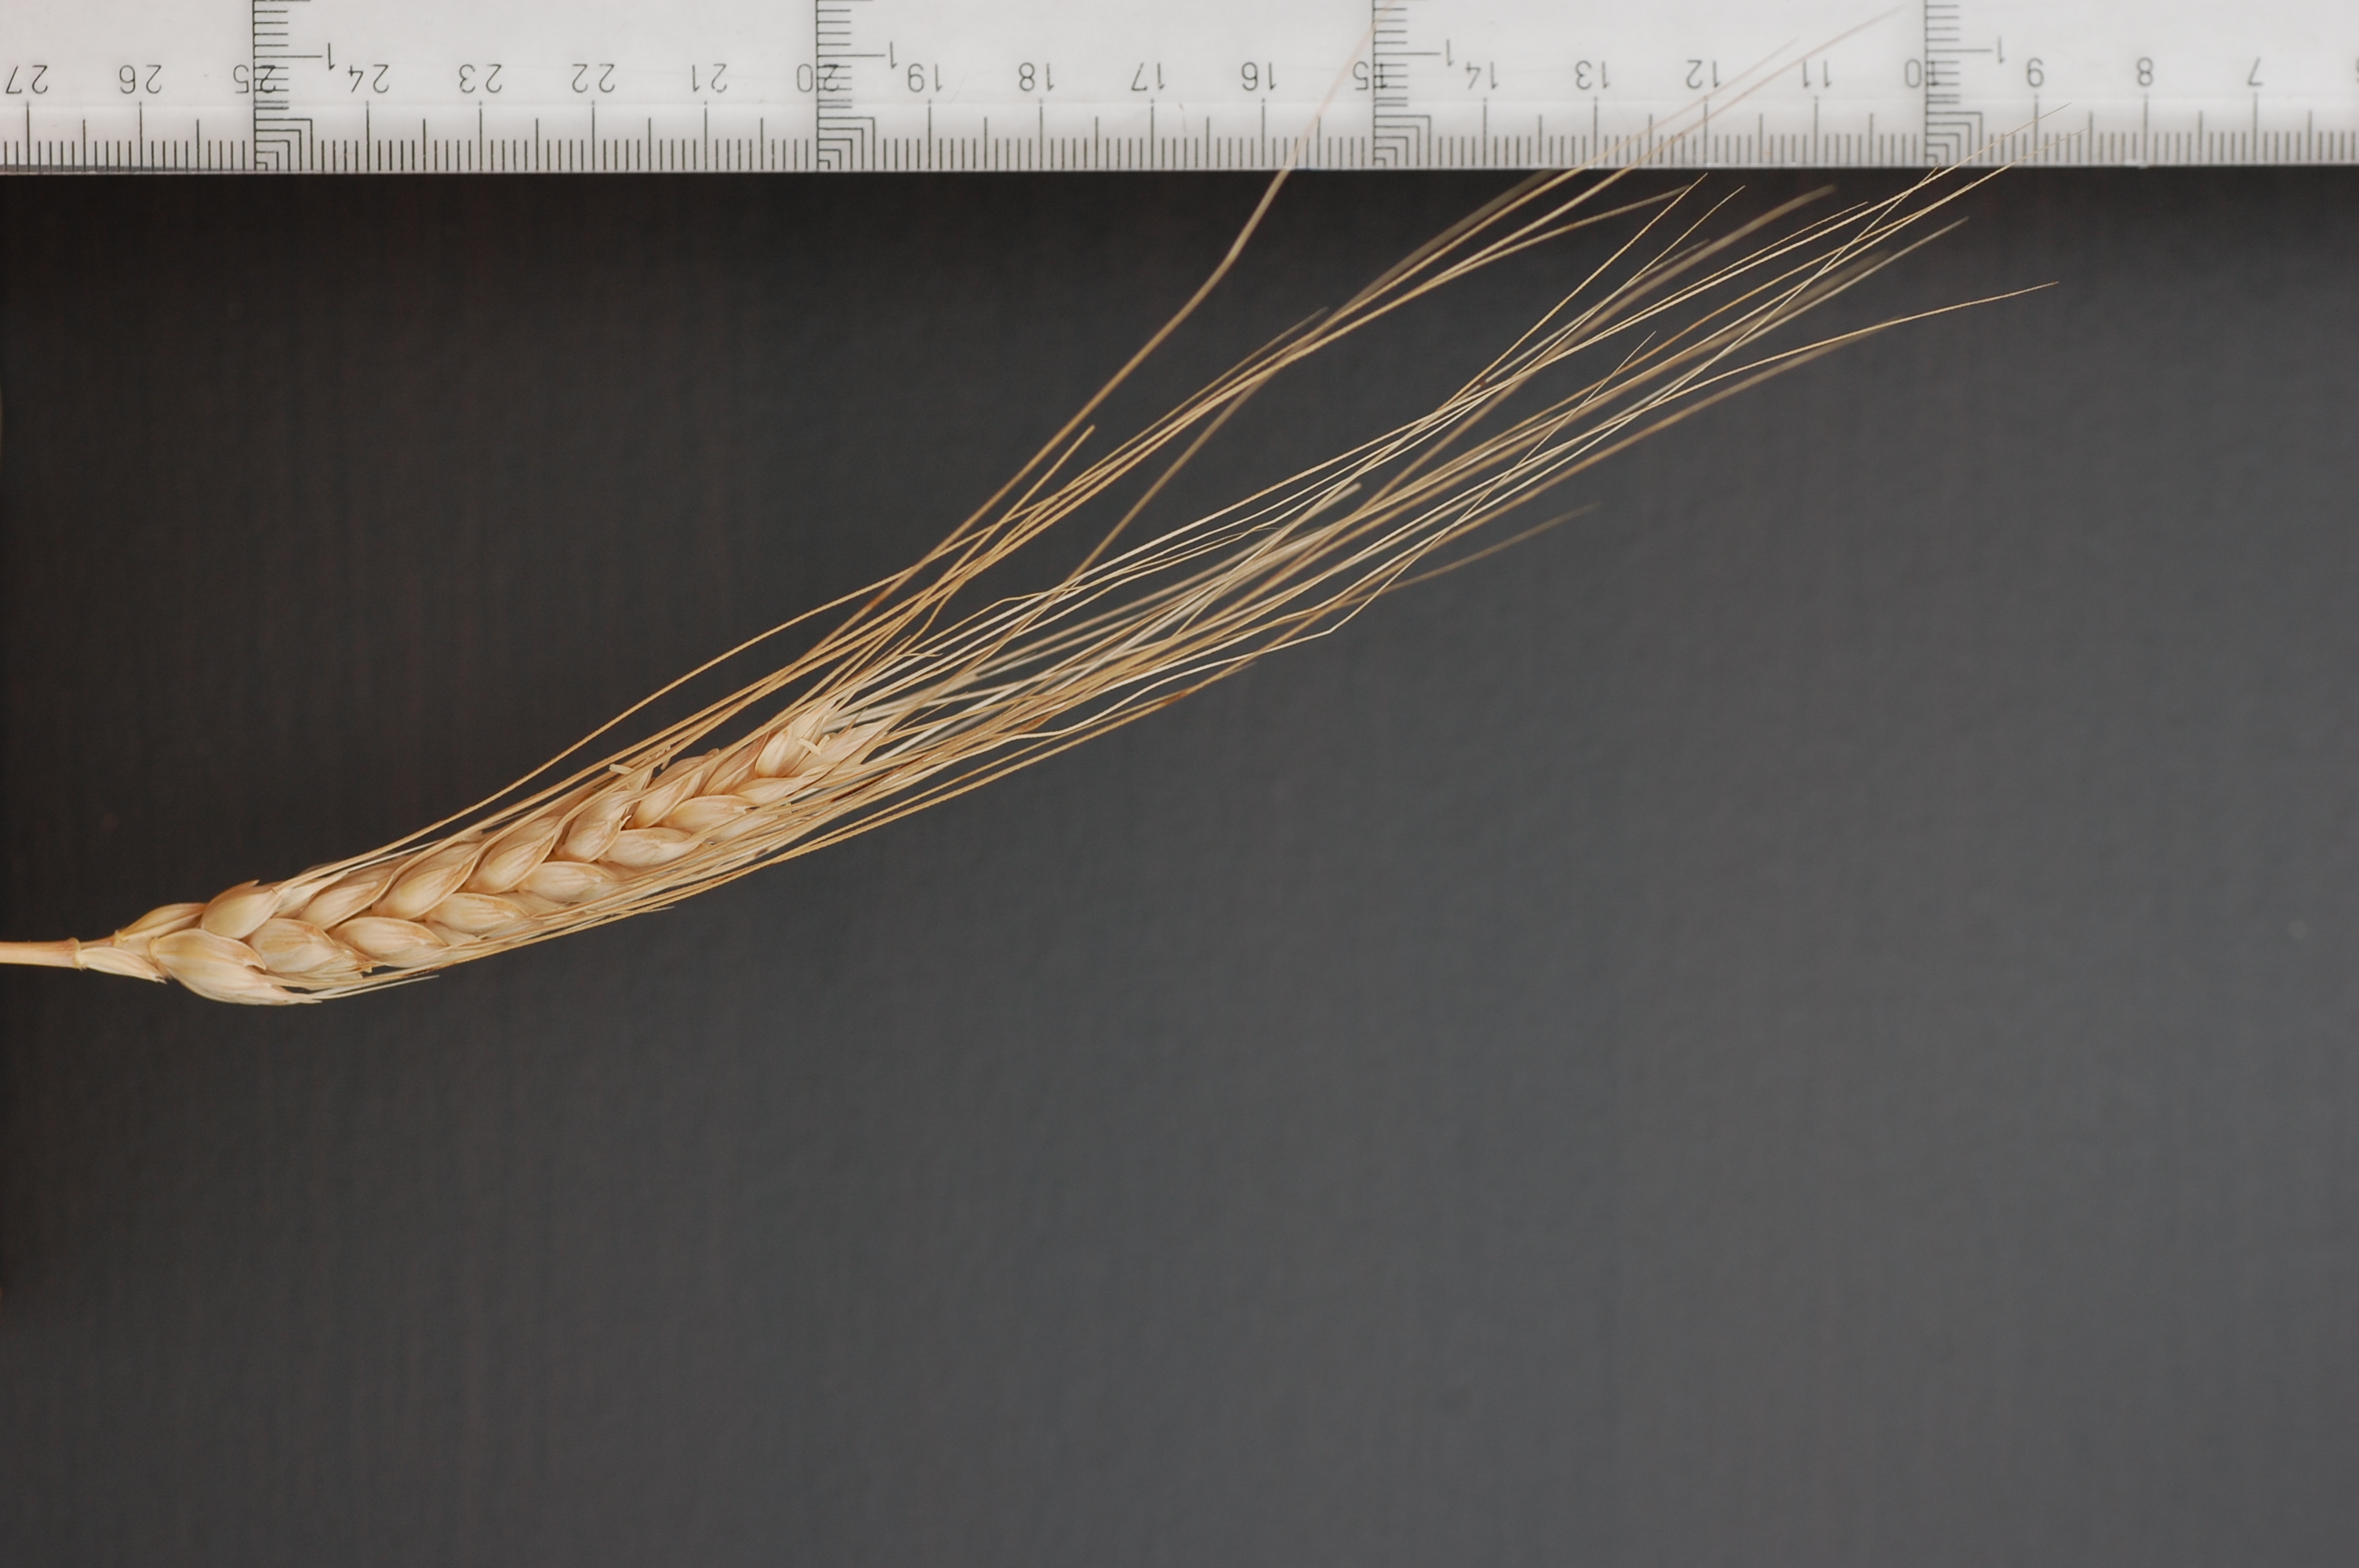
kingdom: Plantae
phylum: Tracheophyta
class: Liliopsida
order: Poales
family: Poaceae
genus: Triticum
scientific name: Triticum aestivum
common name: Common wheat
